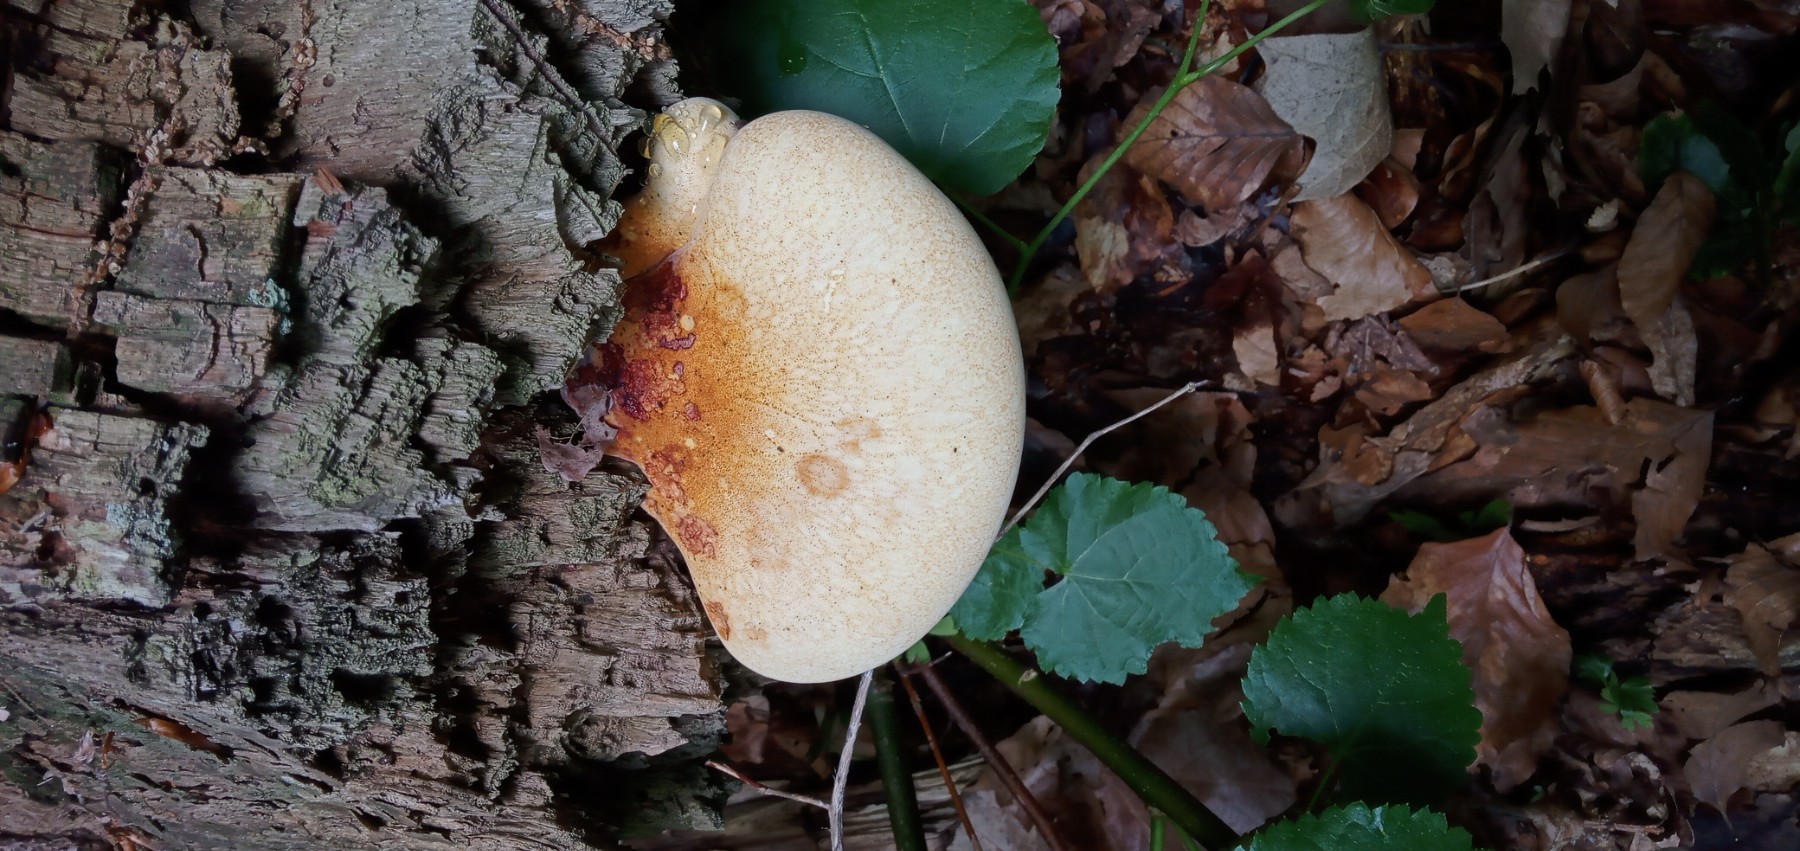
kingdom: Fungi
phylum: Basidiomycota
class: Agaricomycetes
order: Polyporales
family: Fomitopsidaceae
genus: Buglossoporus
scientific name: Buglossoporus quercinus
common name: egetunge
